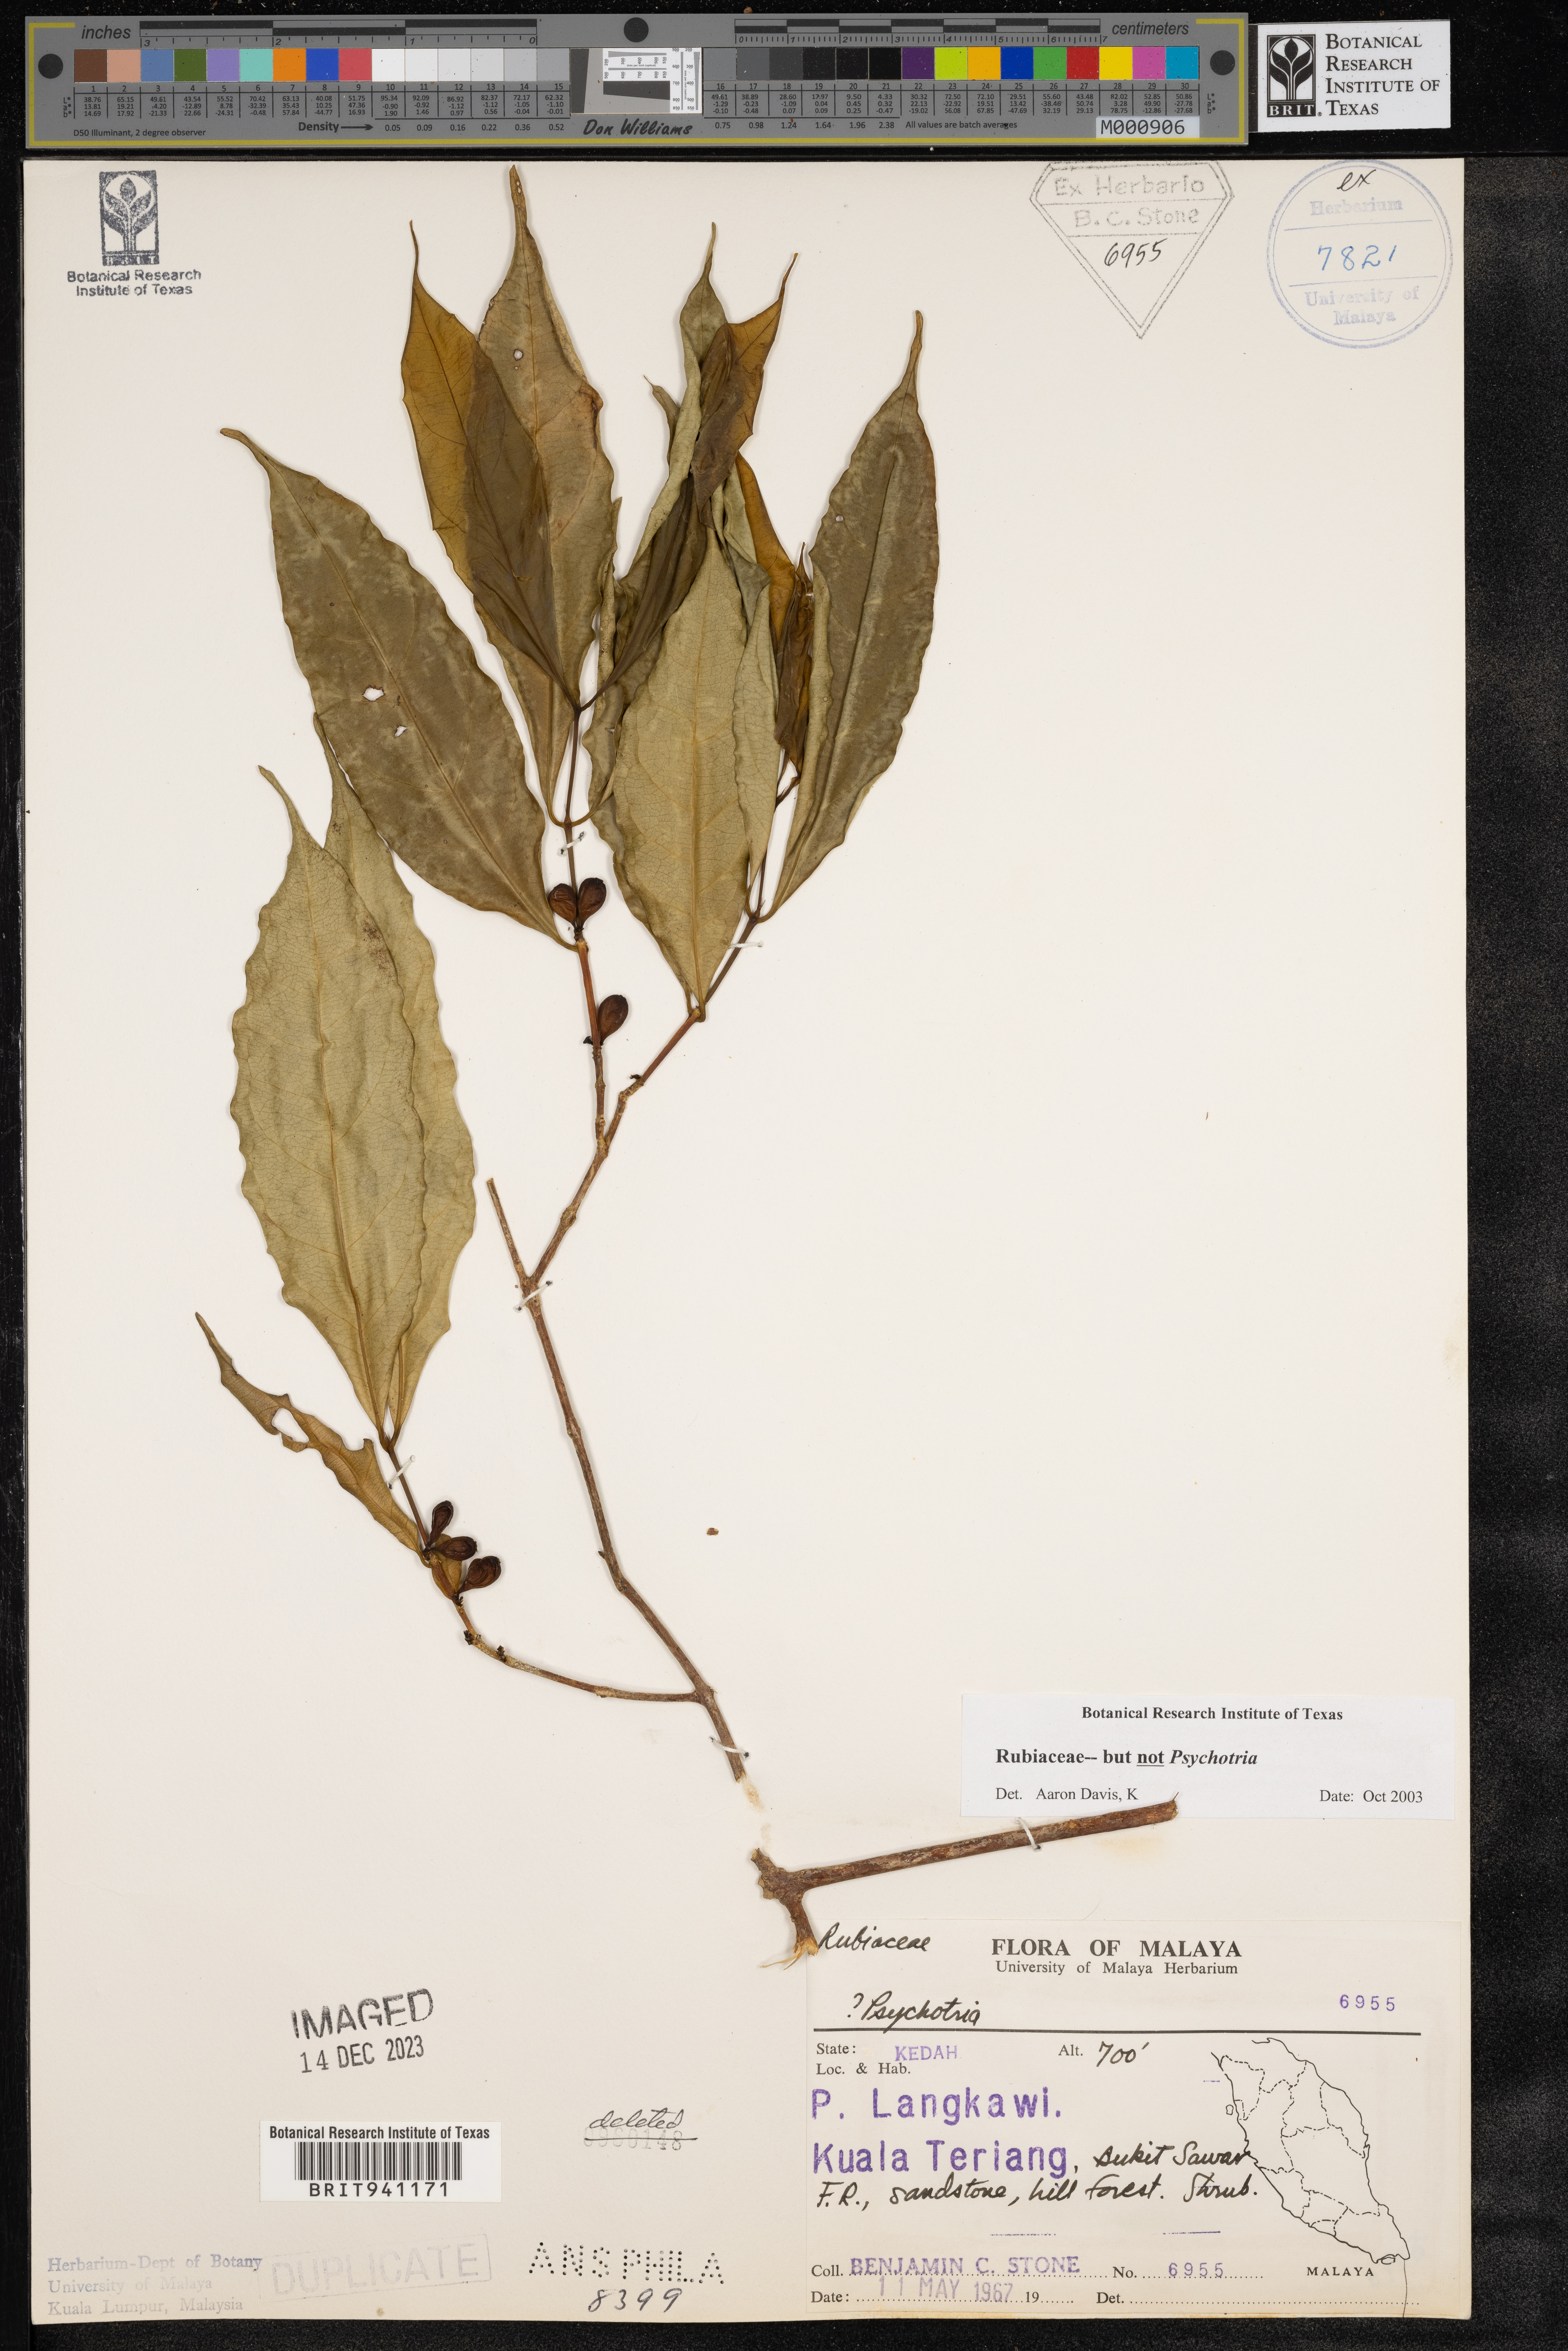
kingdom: Plantae
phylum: Tracheophyta
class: Magnoliopsida
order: Gentianales
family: Rubiaceae
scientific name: Rubiaceae
